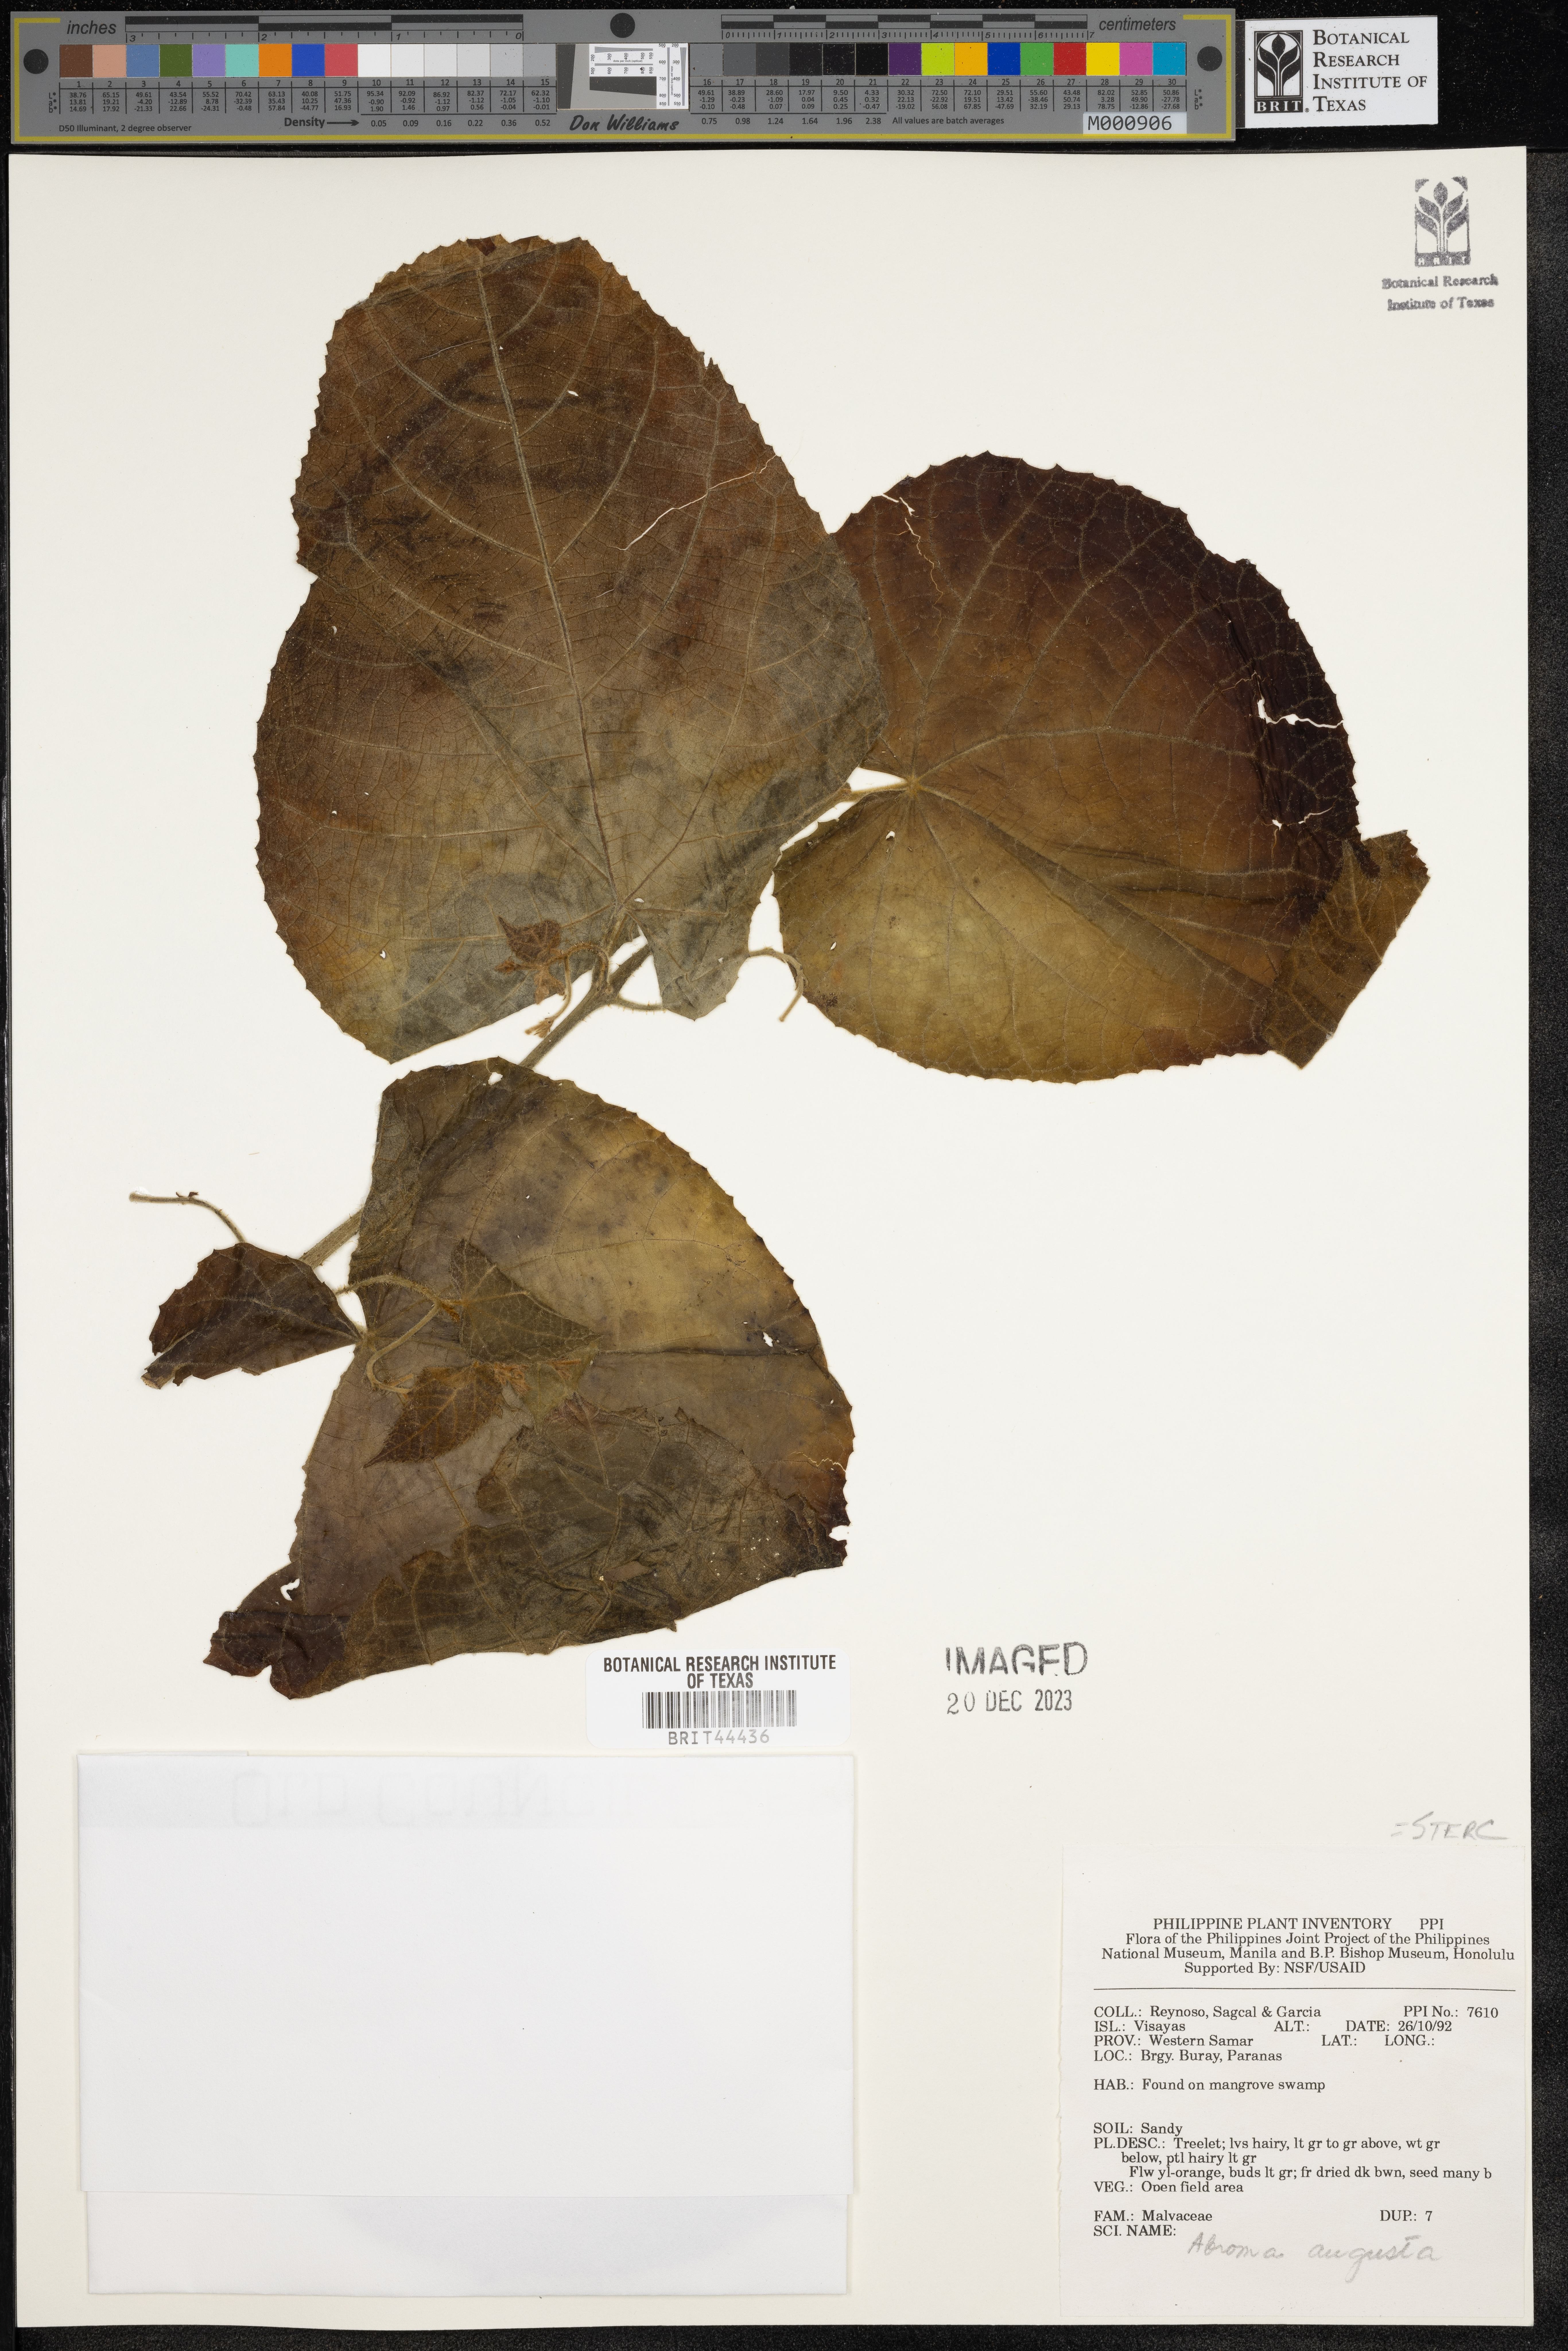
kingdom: Plantae
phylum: Tracheophyta
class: Magnoliopsida
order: Malvales
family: Malvaceae
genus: Abroma
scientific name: Abroma augustum
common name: Devil's-cotton
